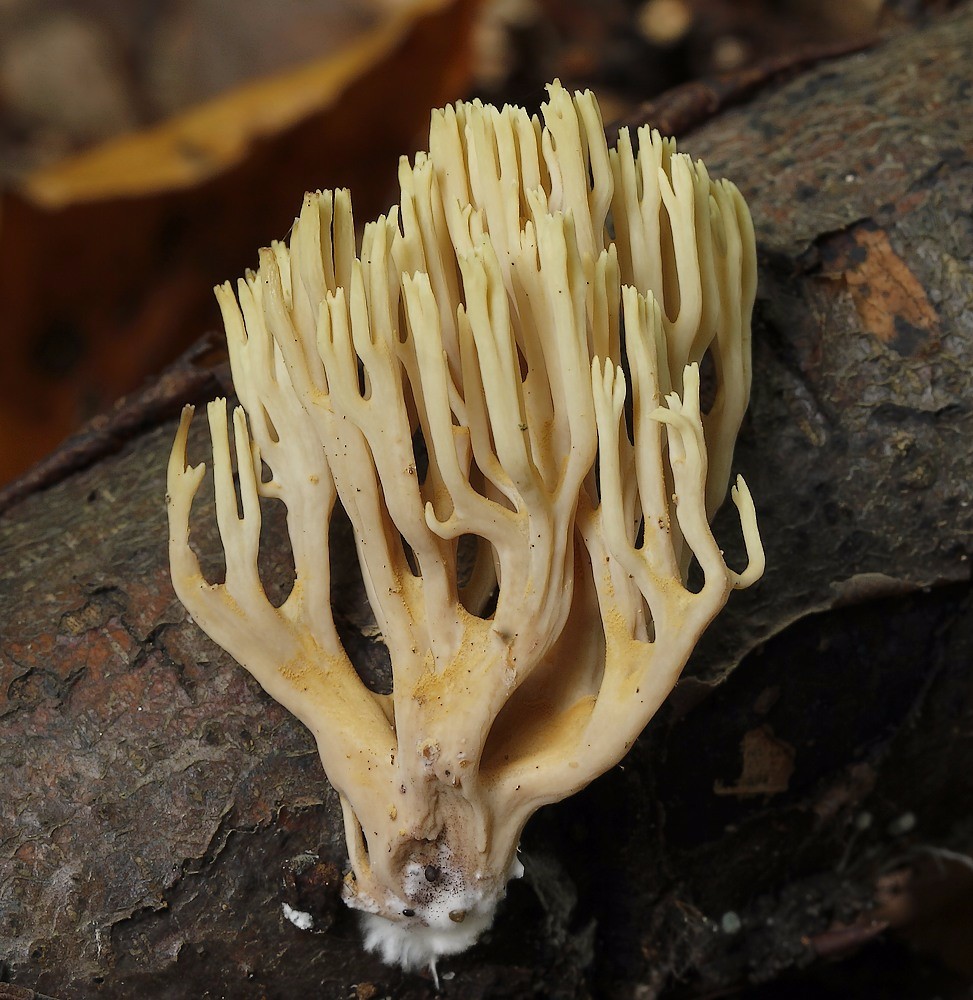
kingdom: Fungi
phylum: Basidiomycota
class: Agaricomycetes
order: Gomphales
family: Gomphaceae
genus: Ramaria
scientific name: Ramaria stricta
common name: rank koralsvamp
